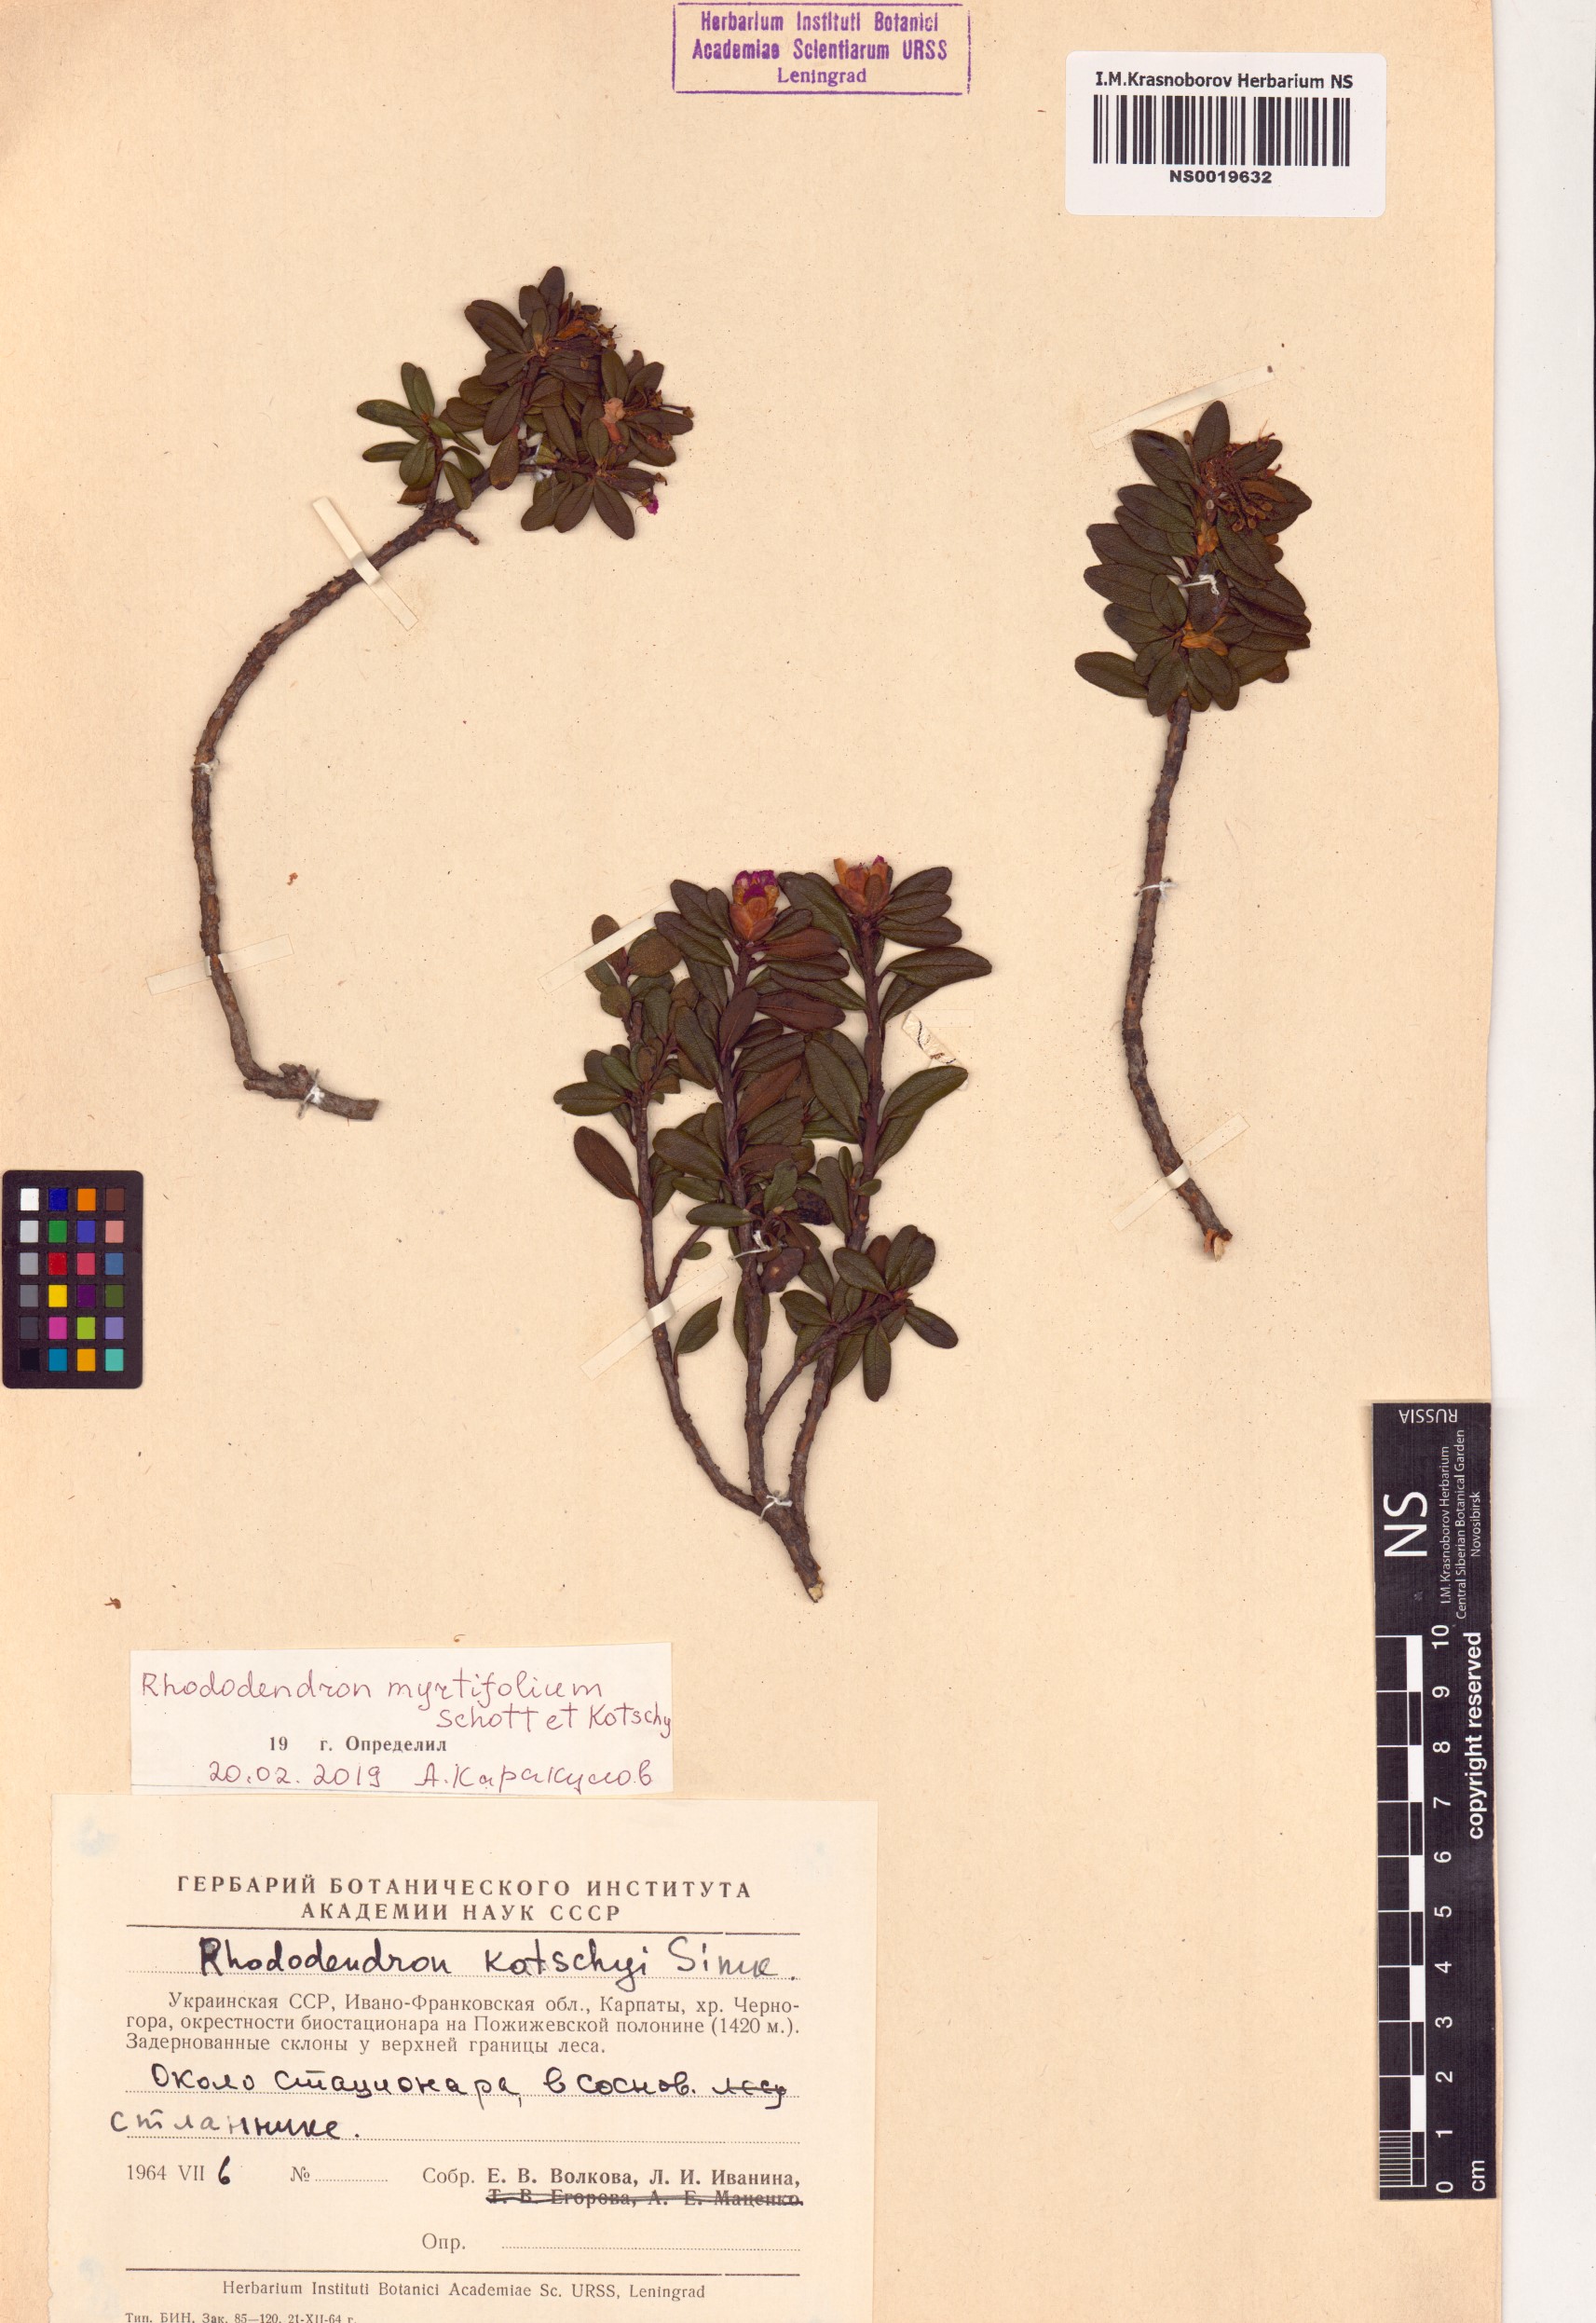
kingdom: Plantae
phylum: Tracheophyta
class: Magnoliopsida
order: Ericales
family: Ericaceae
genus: Rhododendron
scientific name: Rhododendron kotschyi
